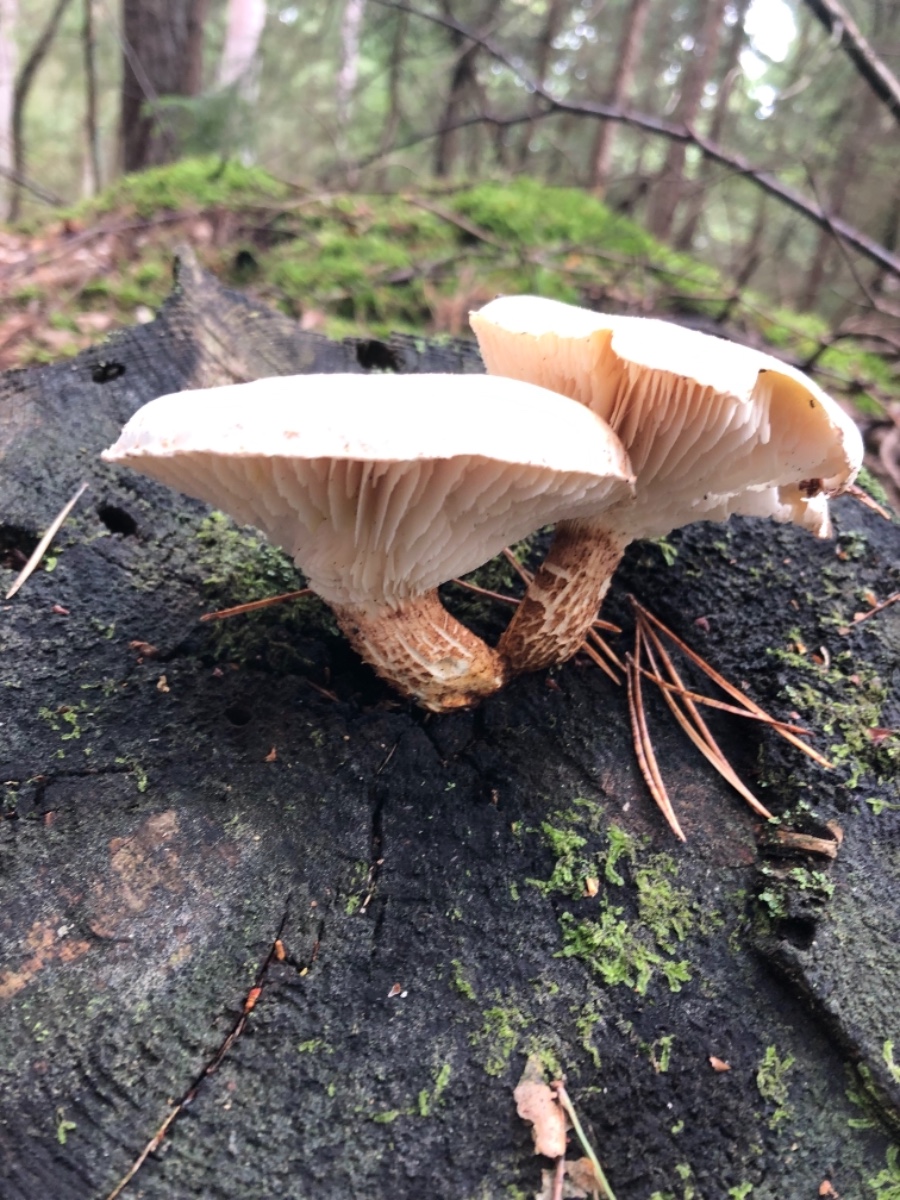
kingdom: Fungi
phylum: Basidiomycota
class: Agaricomycetes
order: Gloeophyllales
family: Gloeophyllaceae
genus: Neolentinus
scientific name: Neolentinus lepideus
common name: skællet sejhat
